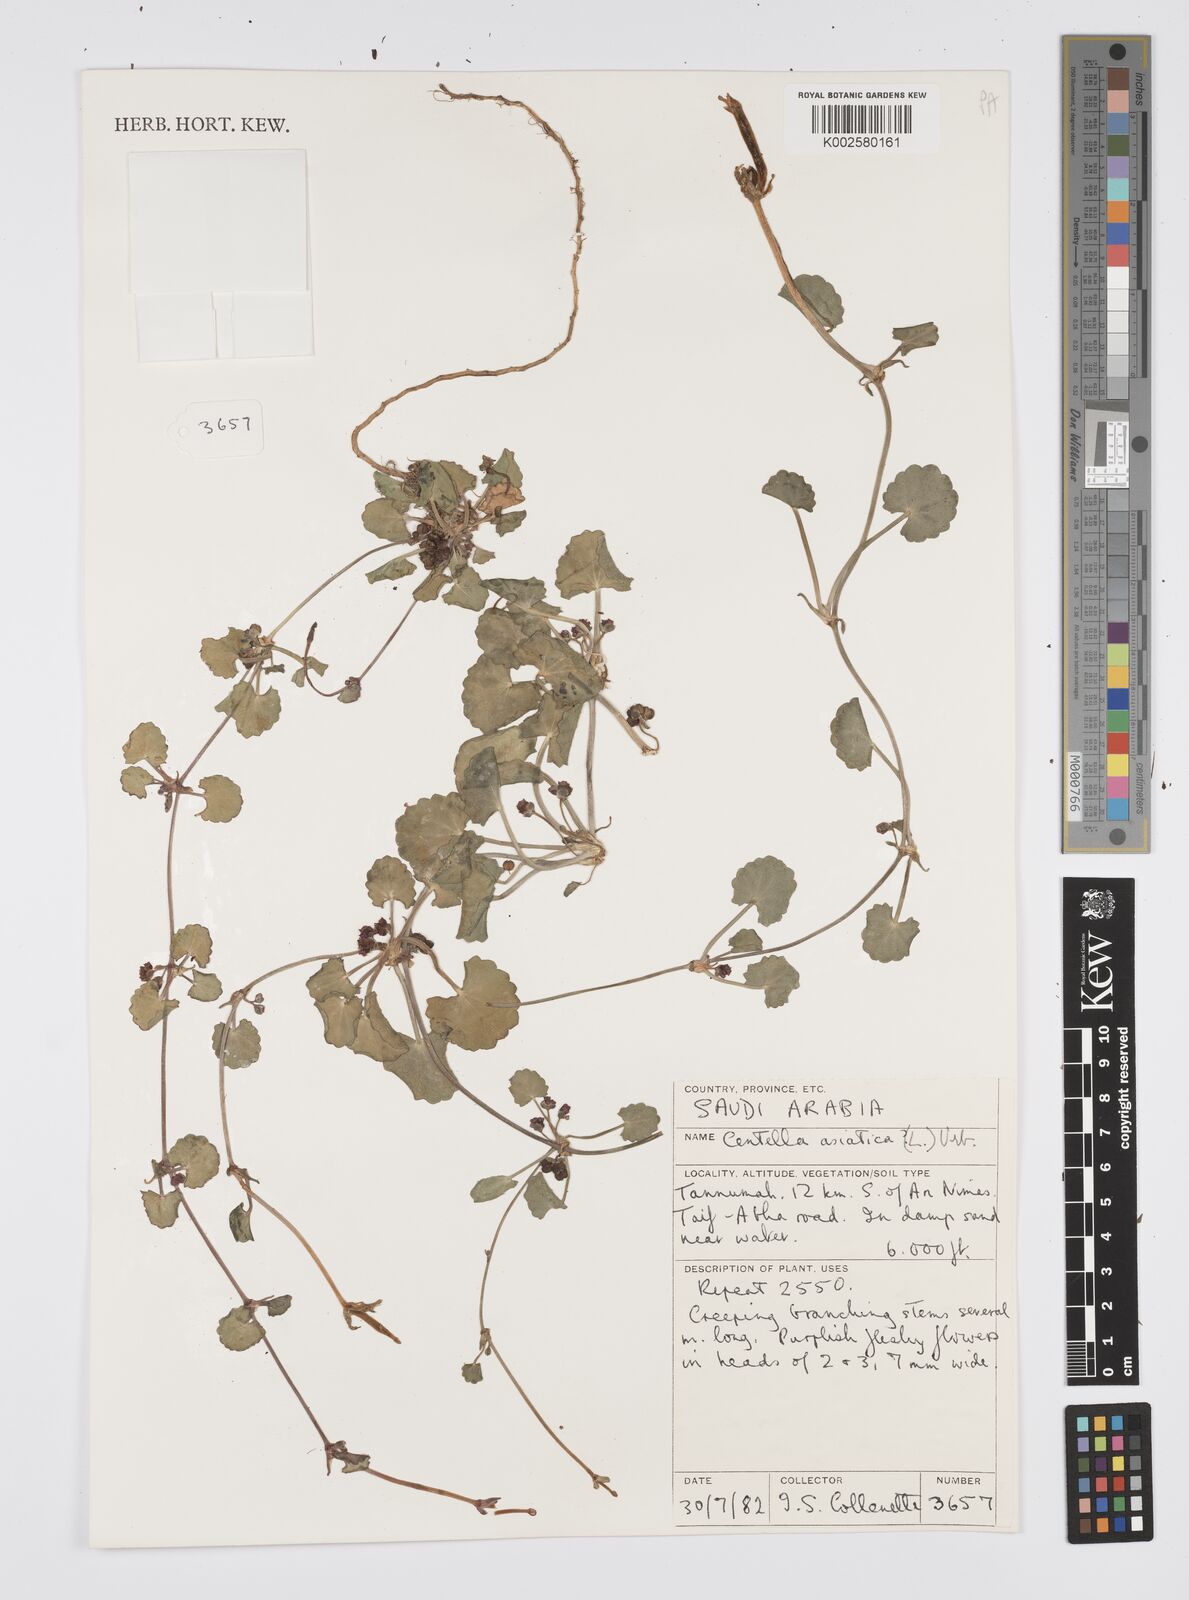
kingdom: Plantae
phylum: Tracheophyta
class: Magnoliopsida
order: Apiales
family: Apiaceae
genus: Centella
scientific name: Centella asiatica
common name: Spadeleaf
